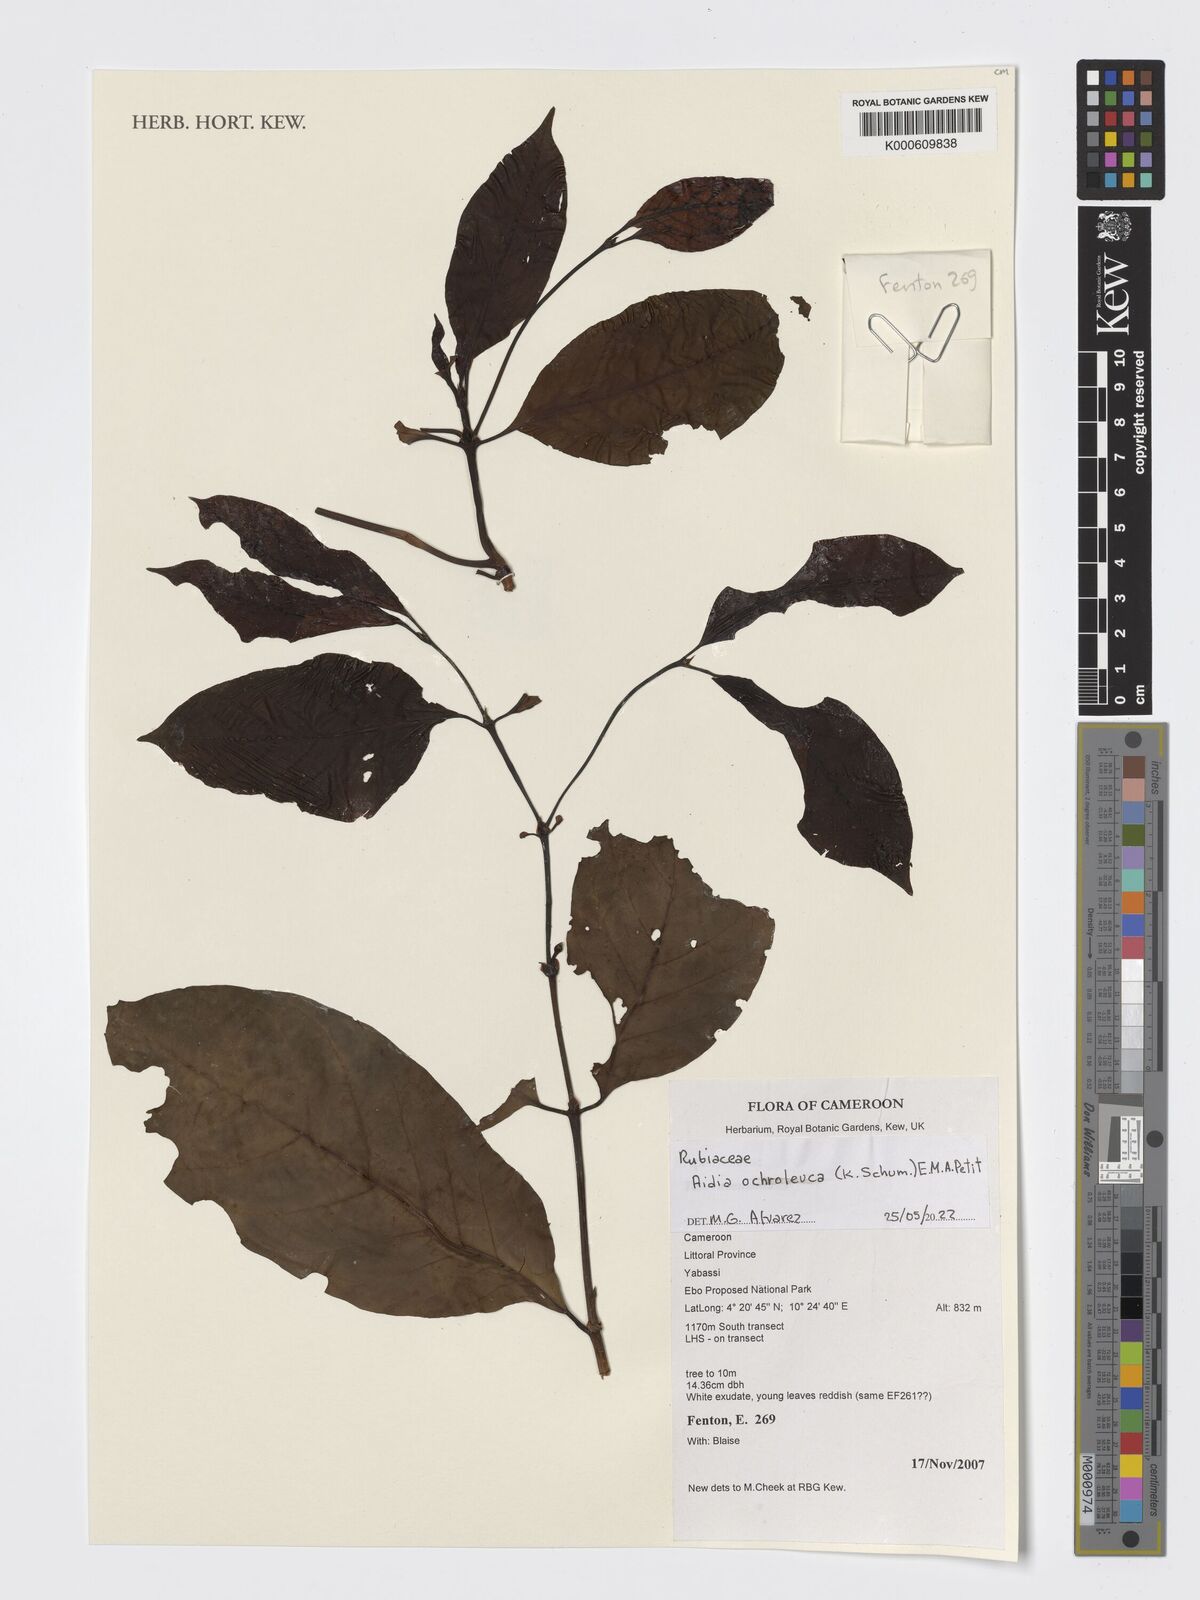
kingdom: Plantae
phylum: Tracheophyta
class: Magnoliopsida
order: Gentianales
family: Rubiaceae
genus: Aidia
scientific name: Aidia ochroleuca
